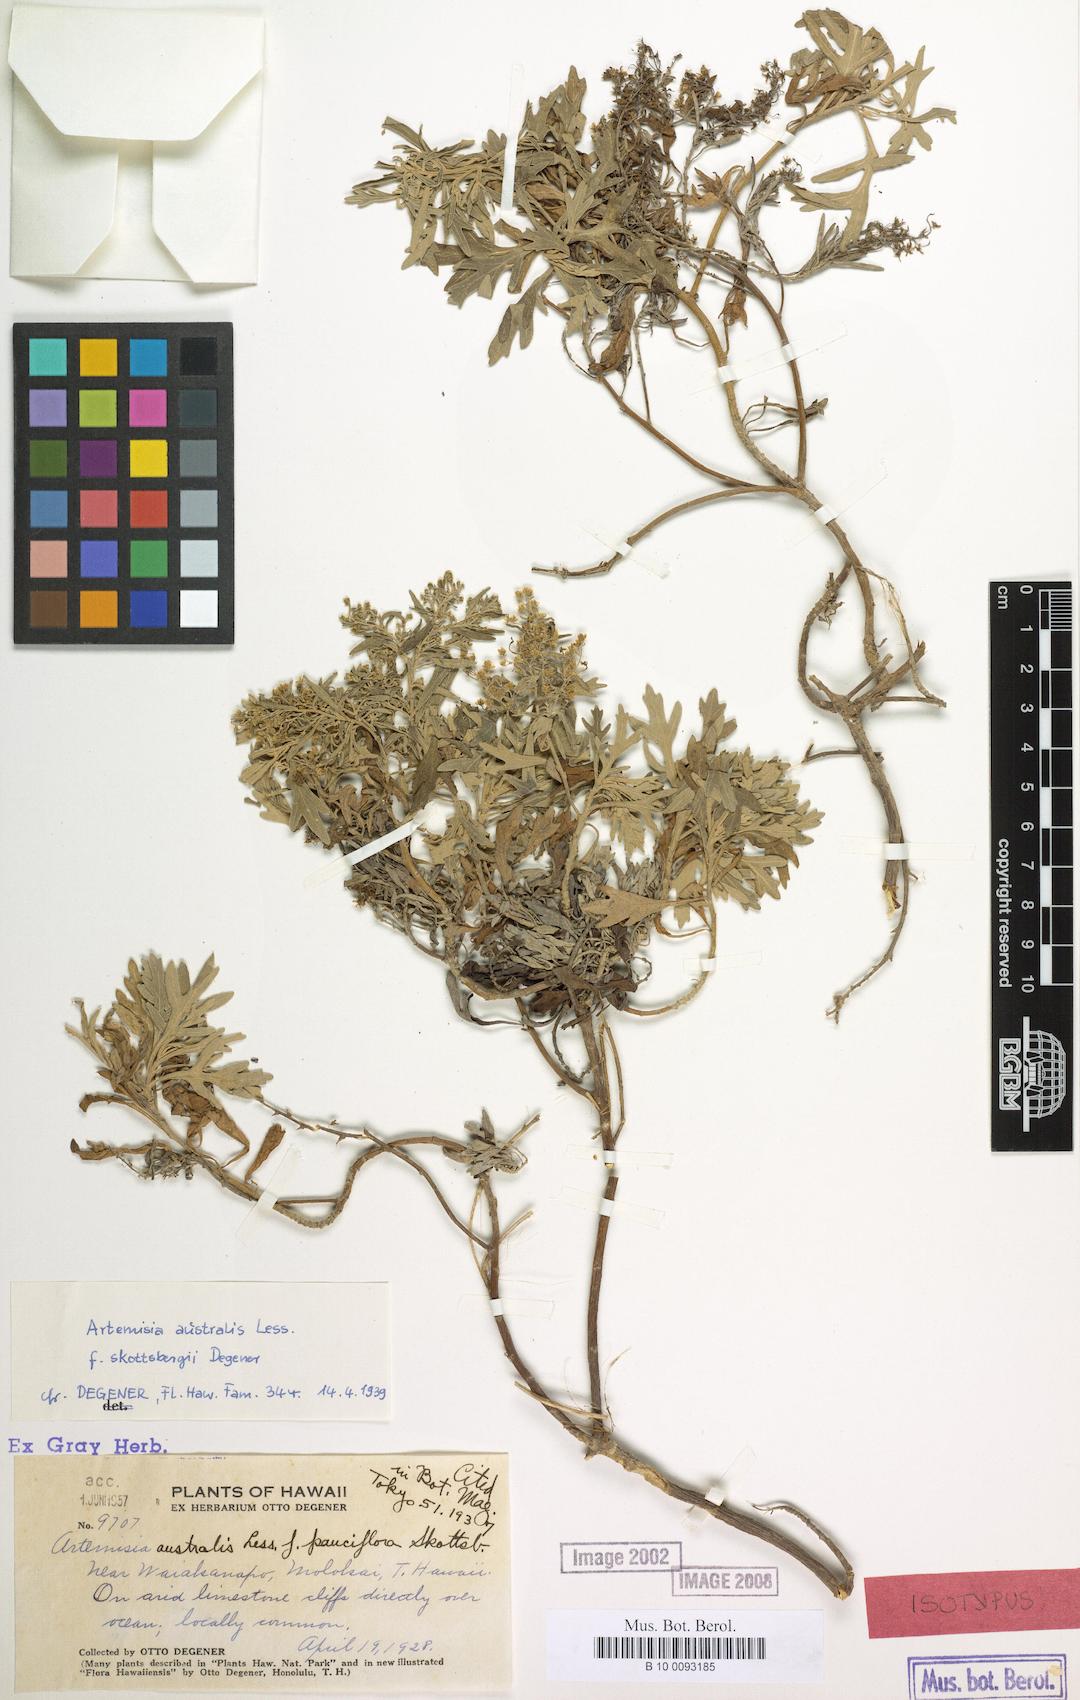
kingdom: Plantae
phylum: Tracheophyta
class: Magnoliopsida
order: Asterales
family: Asteraceae
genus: Artemisia
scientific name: Artemisia australis
